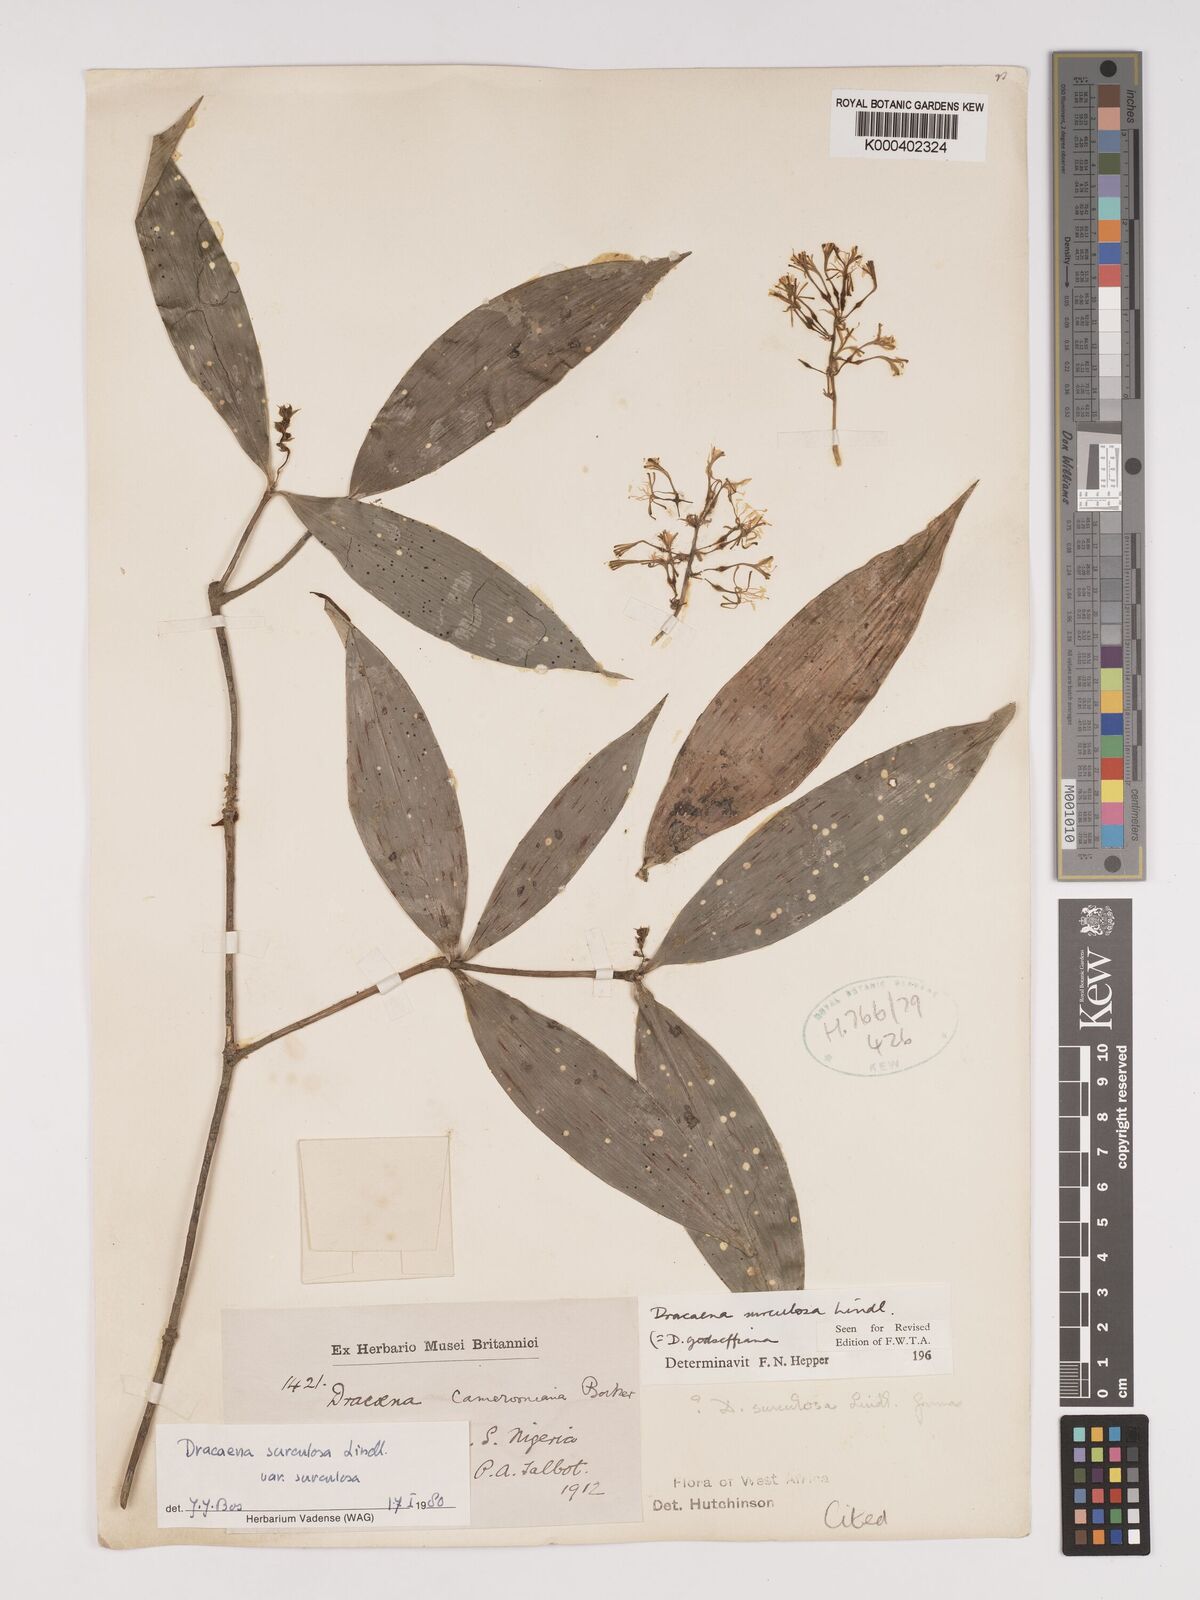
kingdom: Plantae
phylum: Tracheophyta
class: Liliopsida
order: Asparagales
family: Asparagaceae
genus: Dracaena
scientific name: Dracaena surculosa
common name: Spotted dracaena
